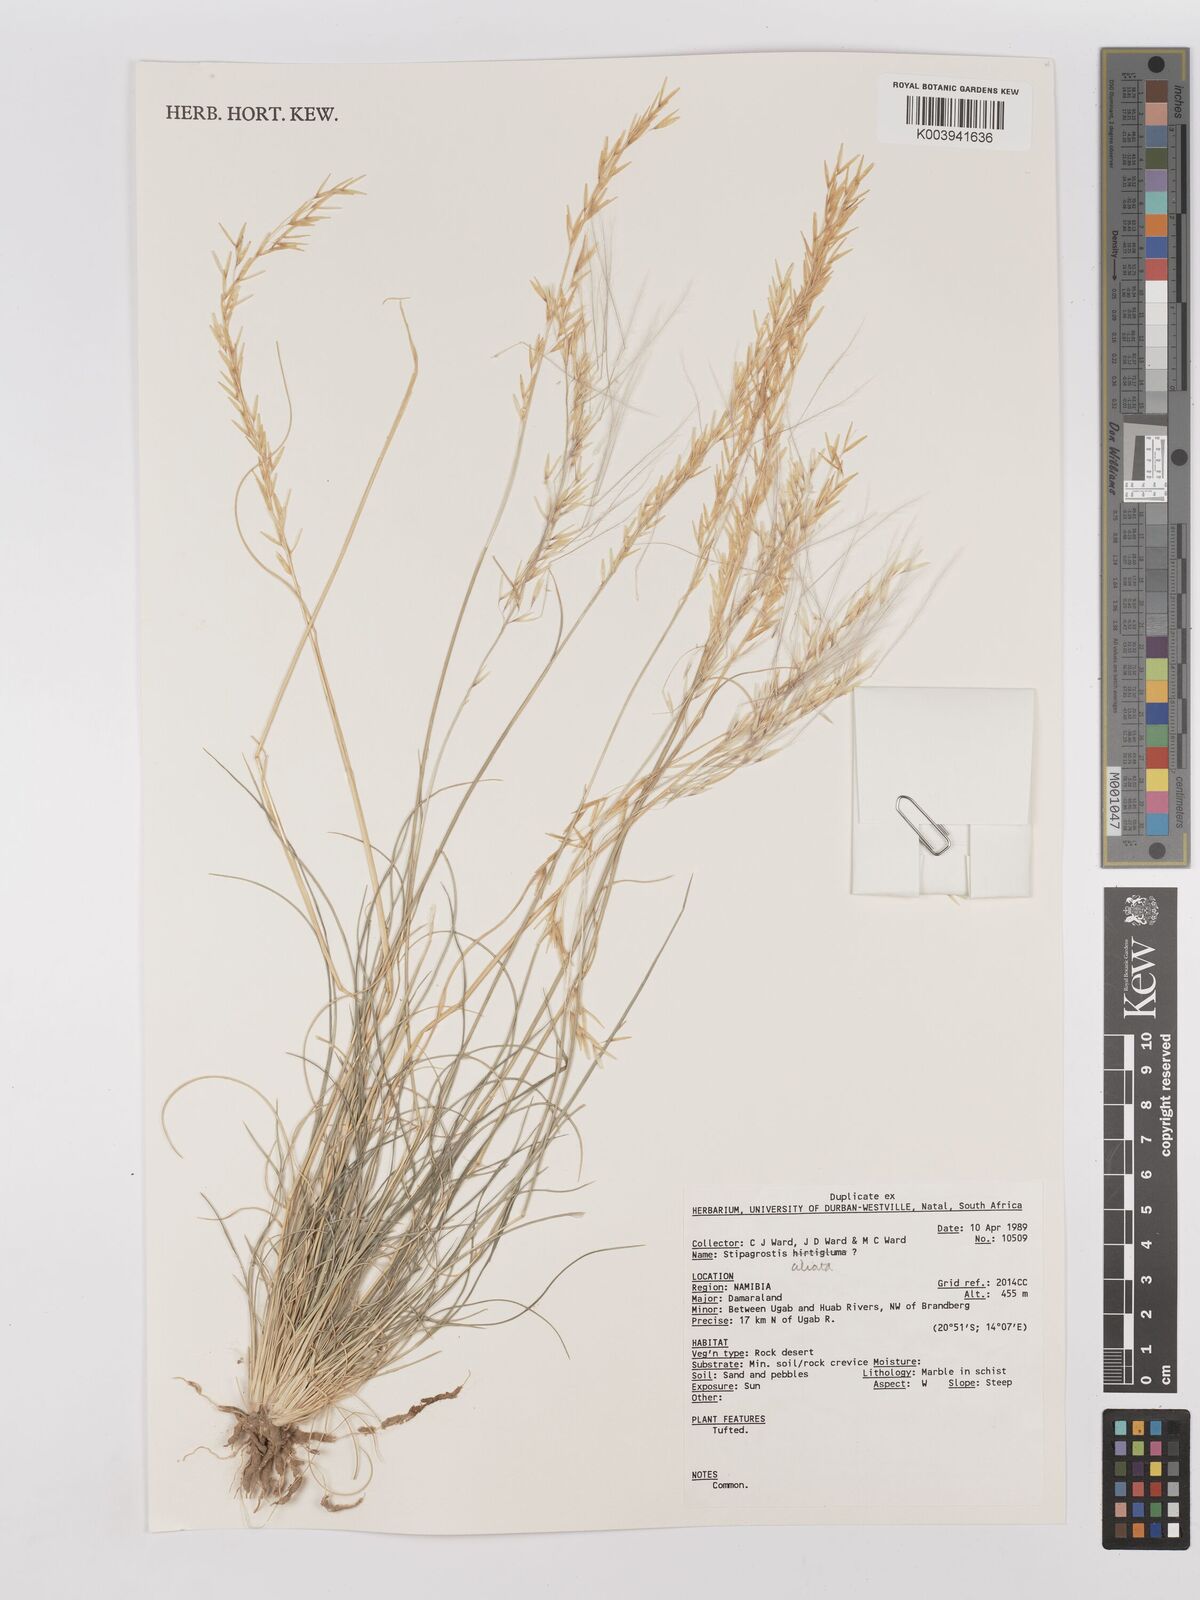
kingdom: Plantae
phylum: Tracheophyta
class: Liliopsida
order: Poales
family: Poaceae
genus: Stipagrostis
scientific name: Stipagrostis ciliata
